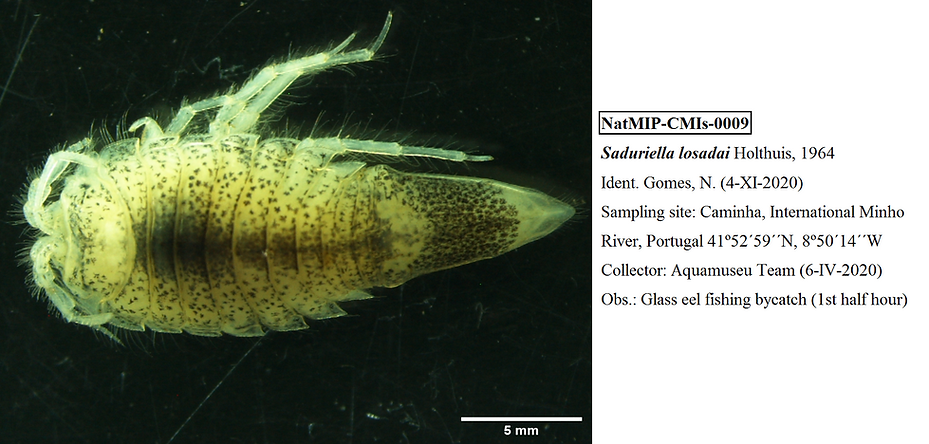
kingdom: Animalia
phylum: Arthropoda
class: Malacostraca
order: Isopoda
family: Chaetiliidae
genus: Saduriella
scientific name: Saduriella losadai
